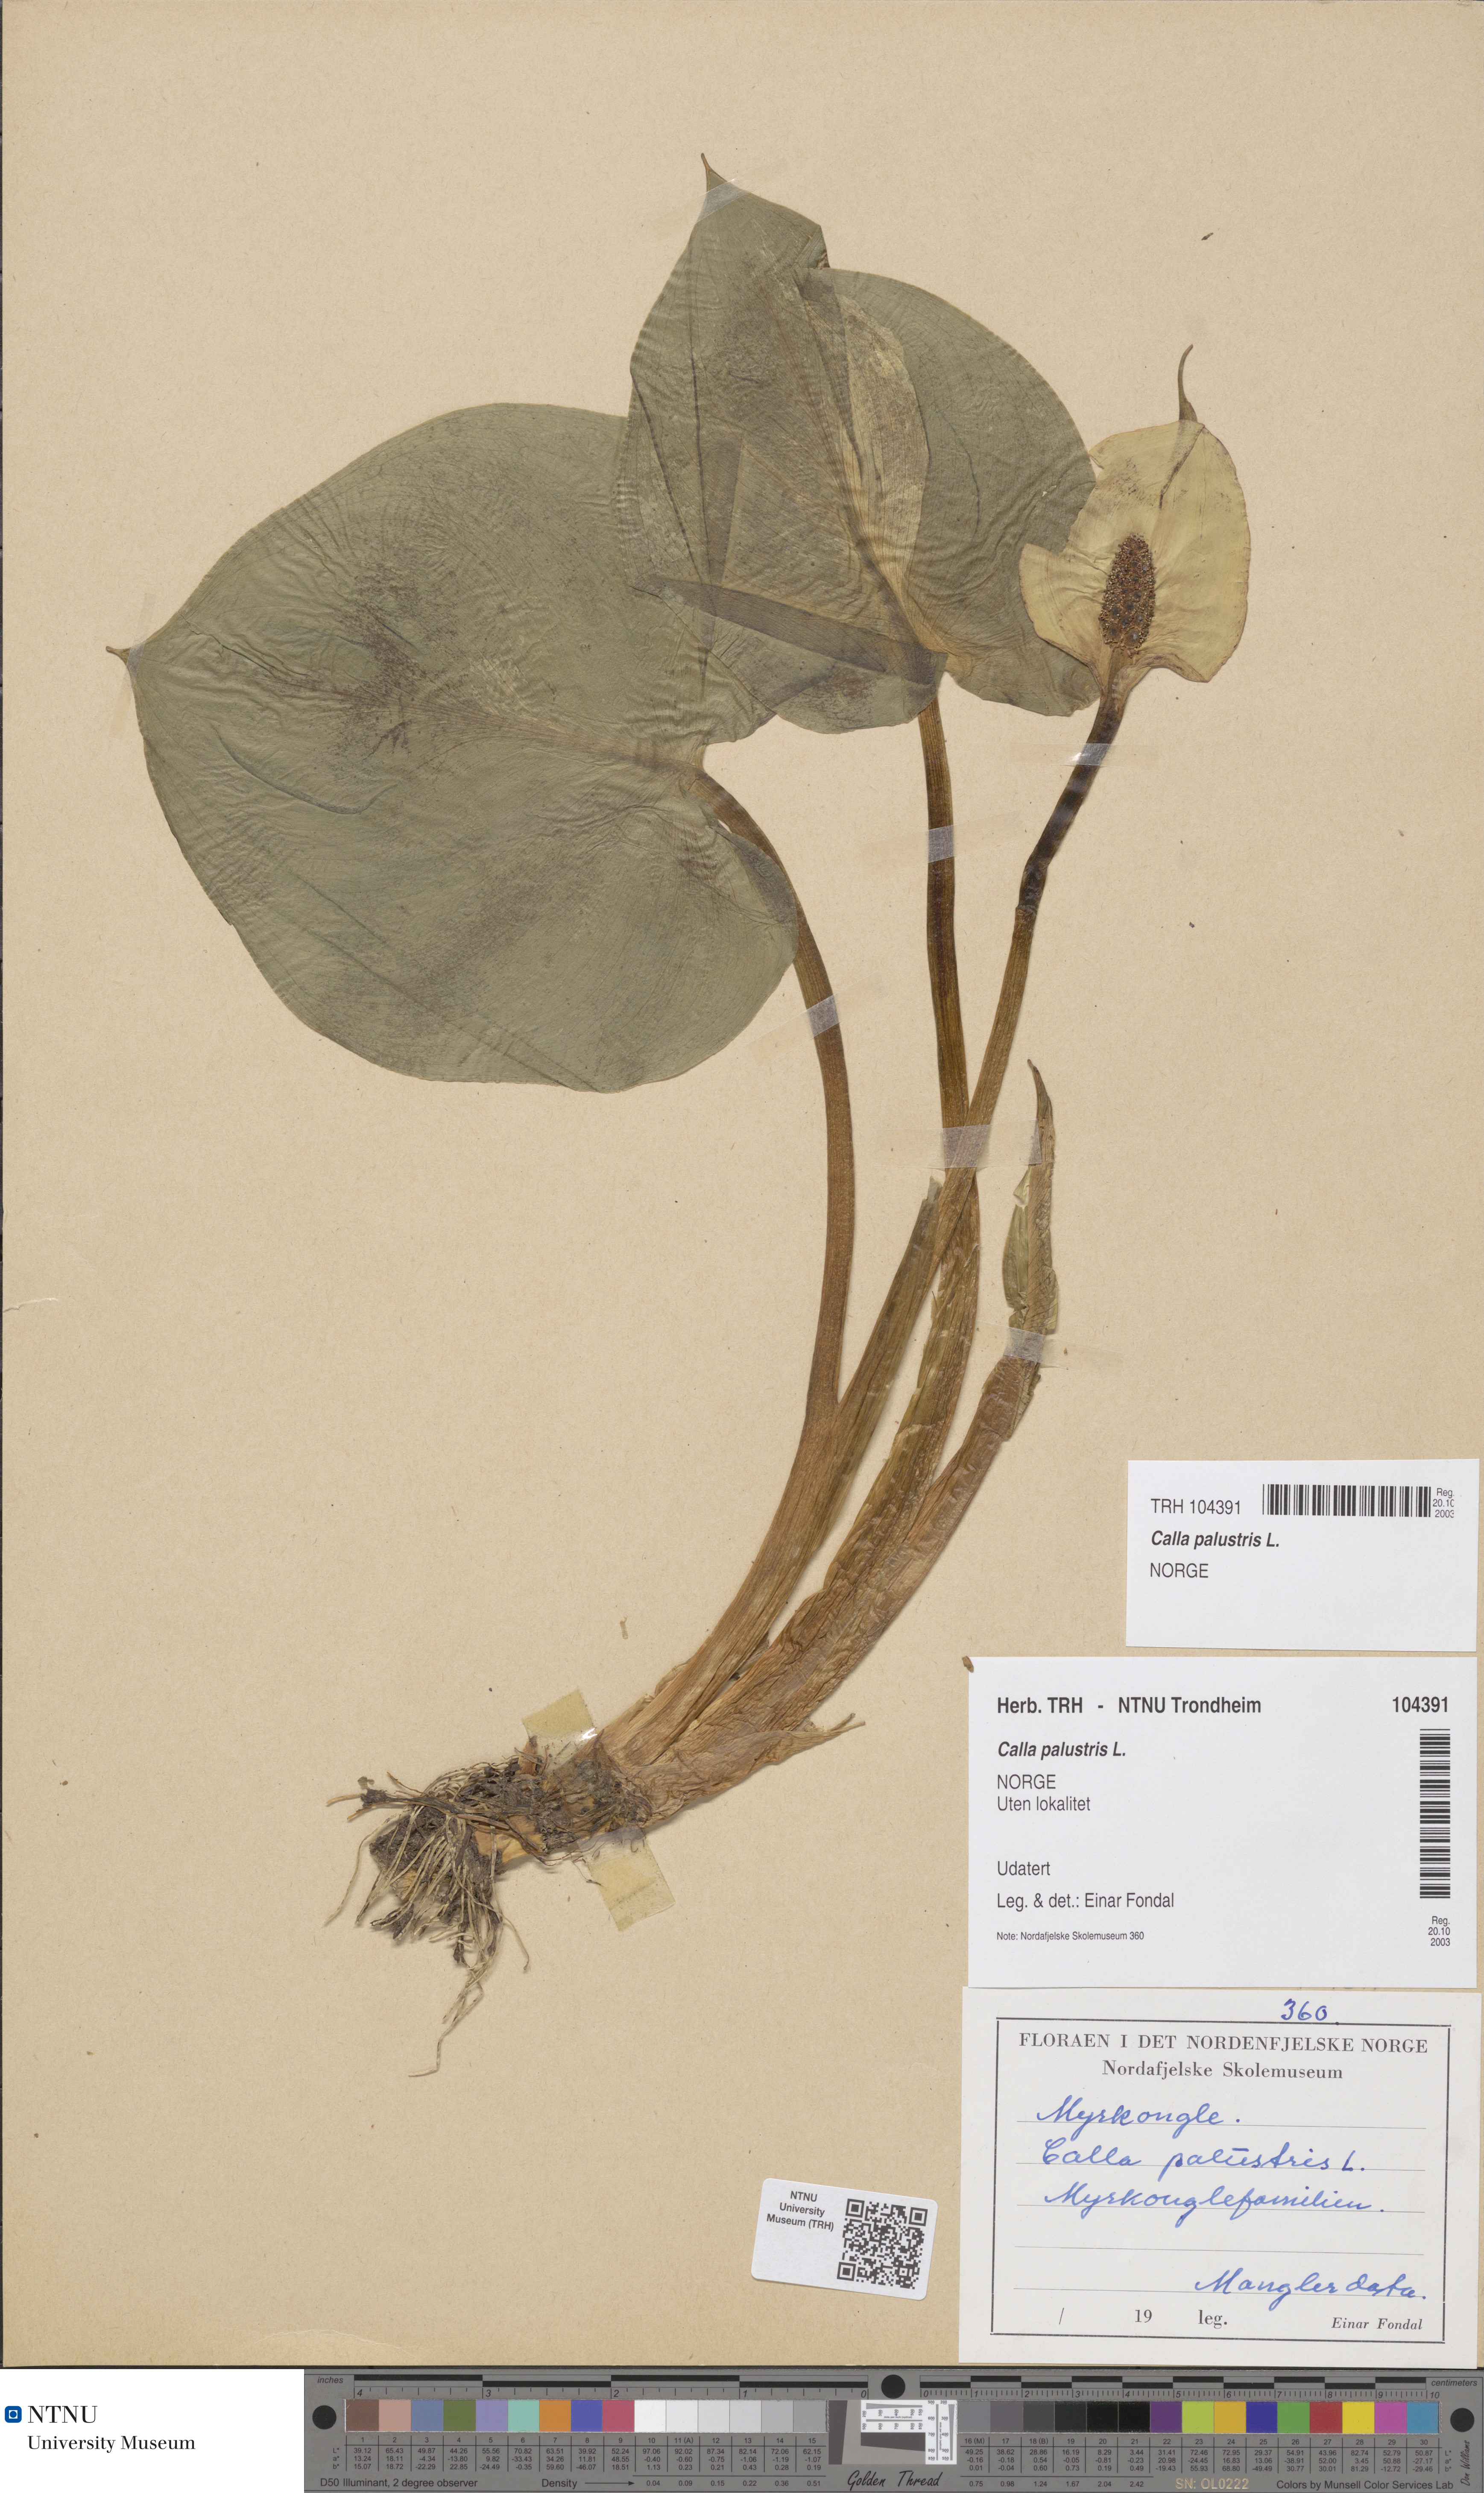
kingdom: Plantae
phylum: Tracheophyta
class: Liliopsida
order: Alismatales
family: Araceae
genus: Calla
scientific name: Calla palustris
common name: Bog arum
